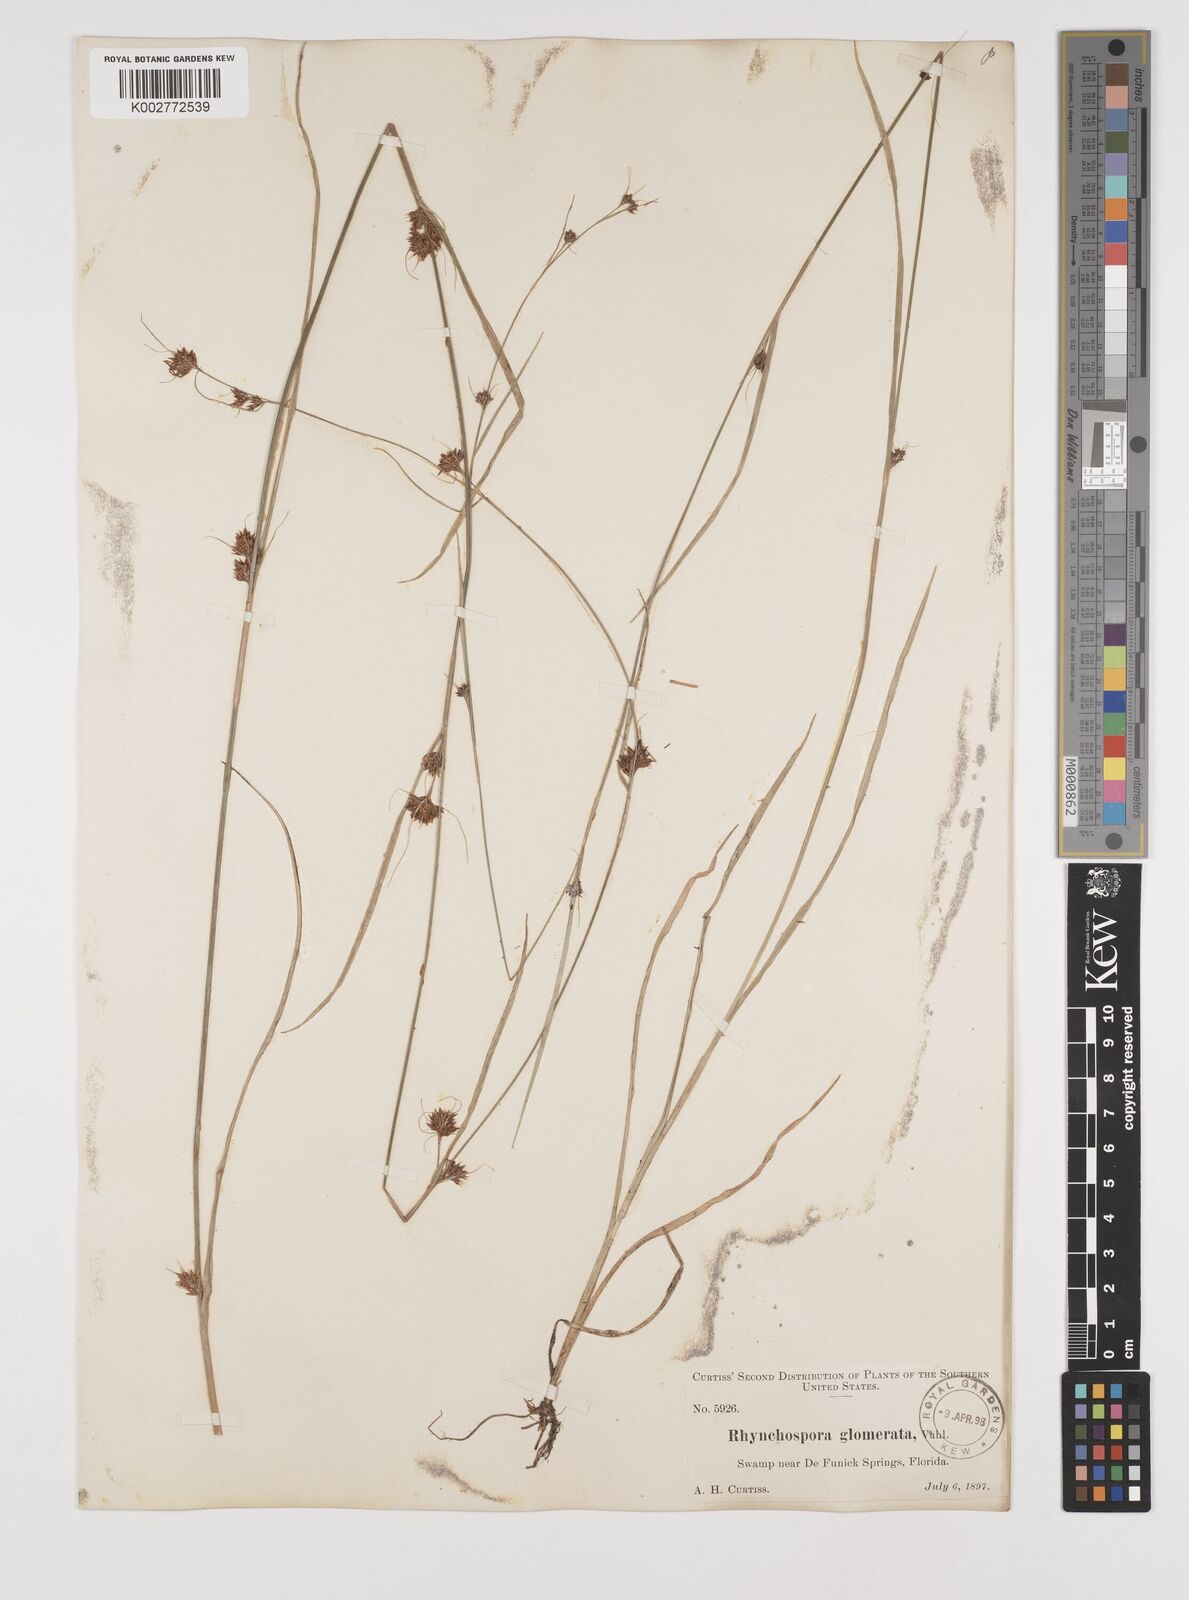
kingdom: Plantae
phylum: Tracheophyta
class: Liliopsida
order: Poales
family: Cyperaceae
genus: Rhynchospora
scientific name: Rhynchospora glomerata
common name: Cluster beak sedge
